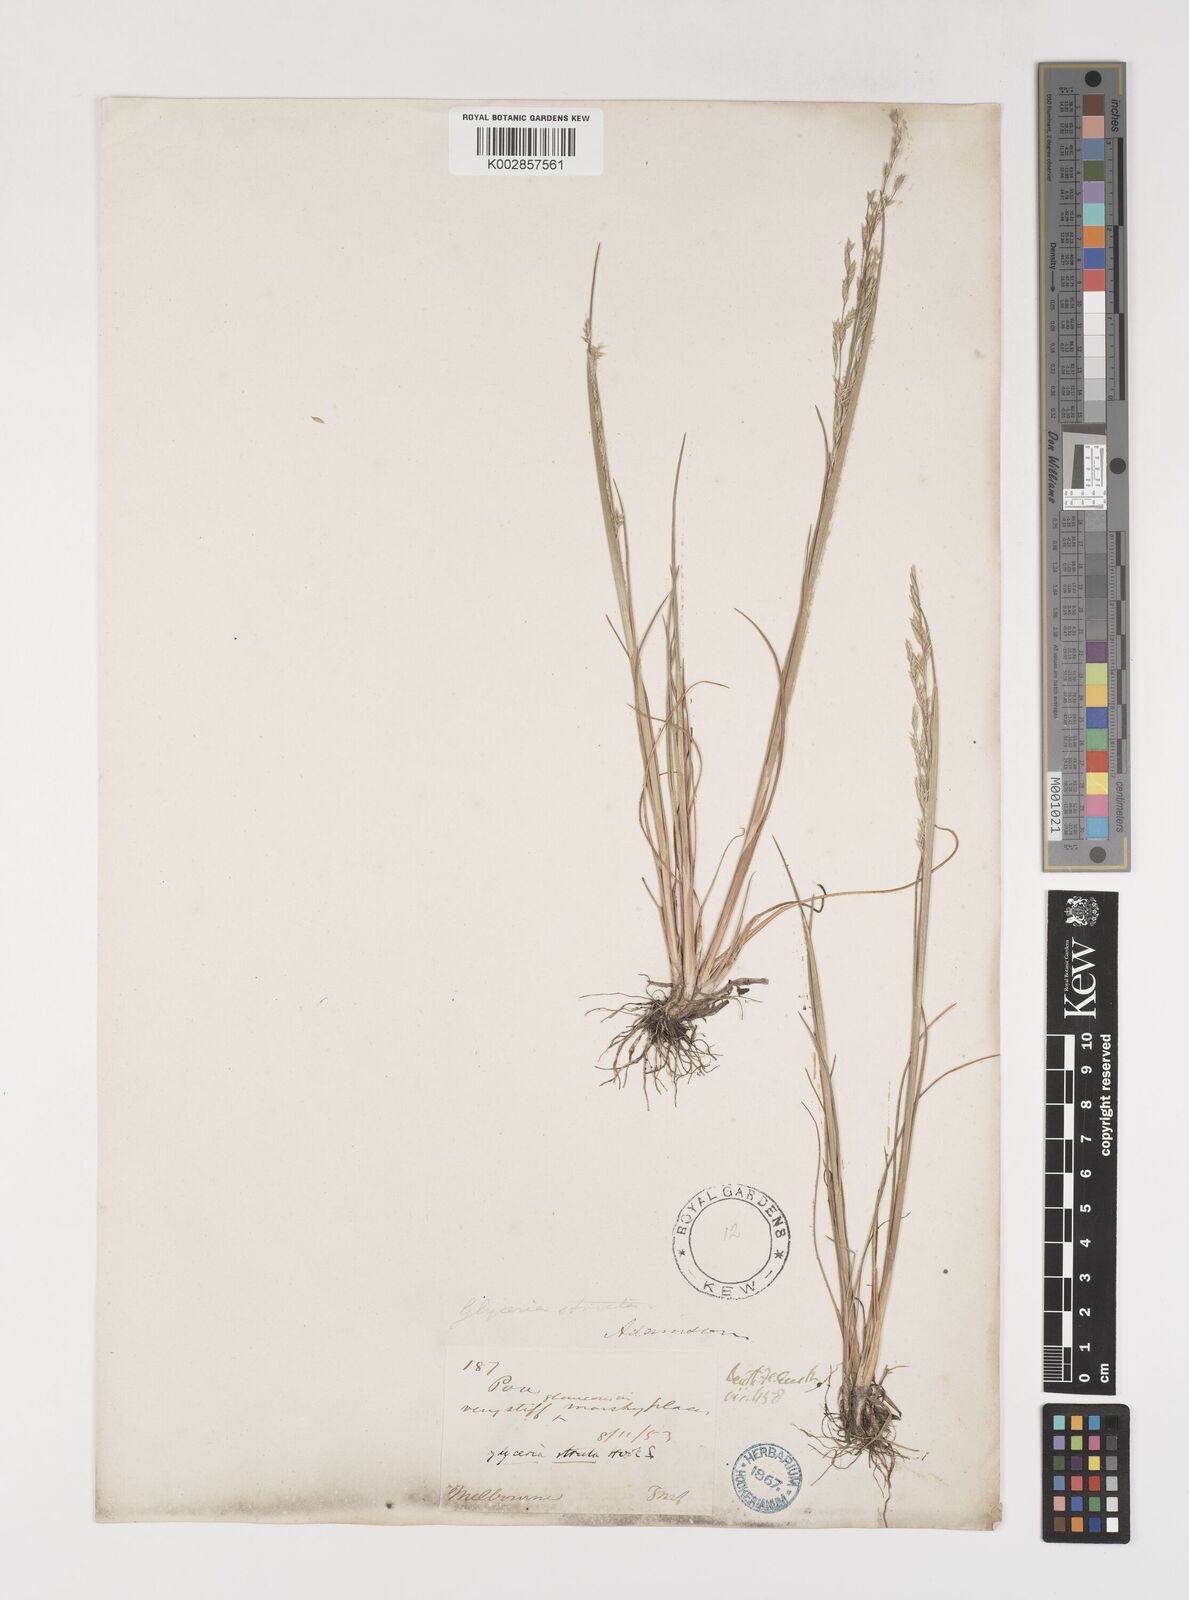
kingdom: Plantae
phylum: Tracheophyta
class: Liliopsida
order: Poales
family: Poaceae
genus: Puccinellia
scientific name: Puccinellia stricta
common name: Australian saltmarsh grass
